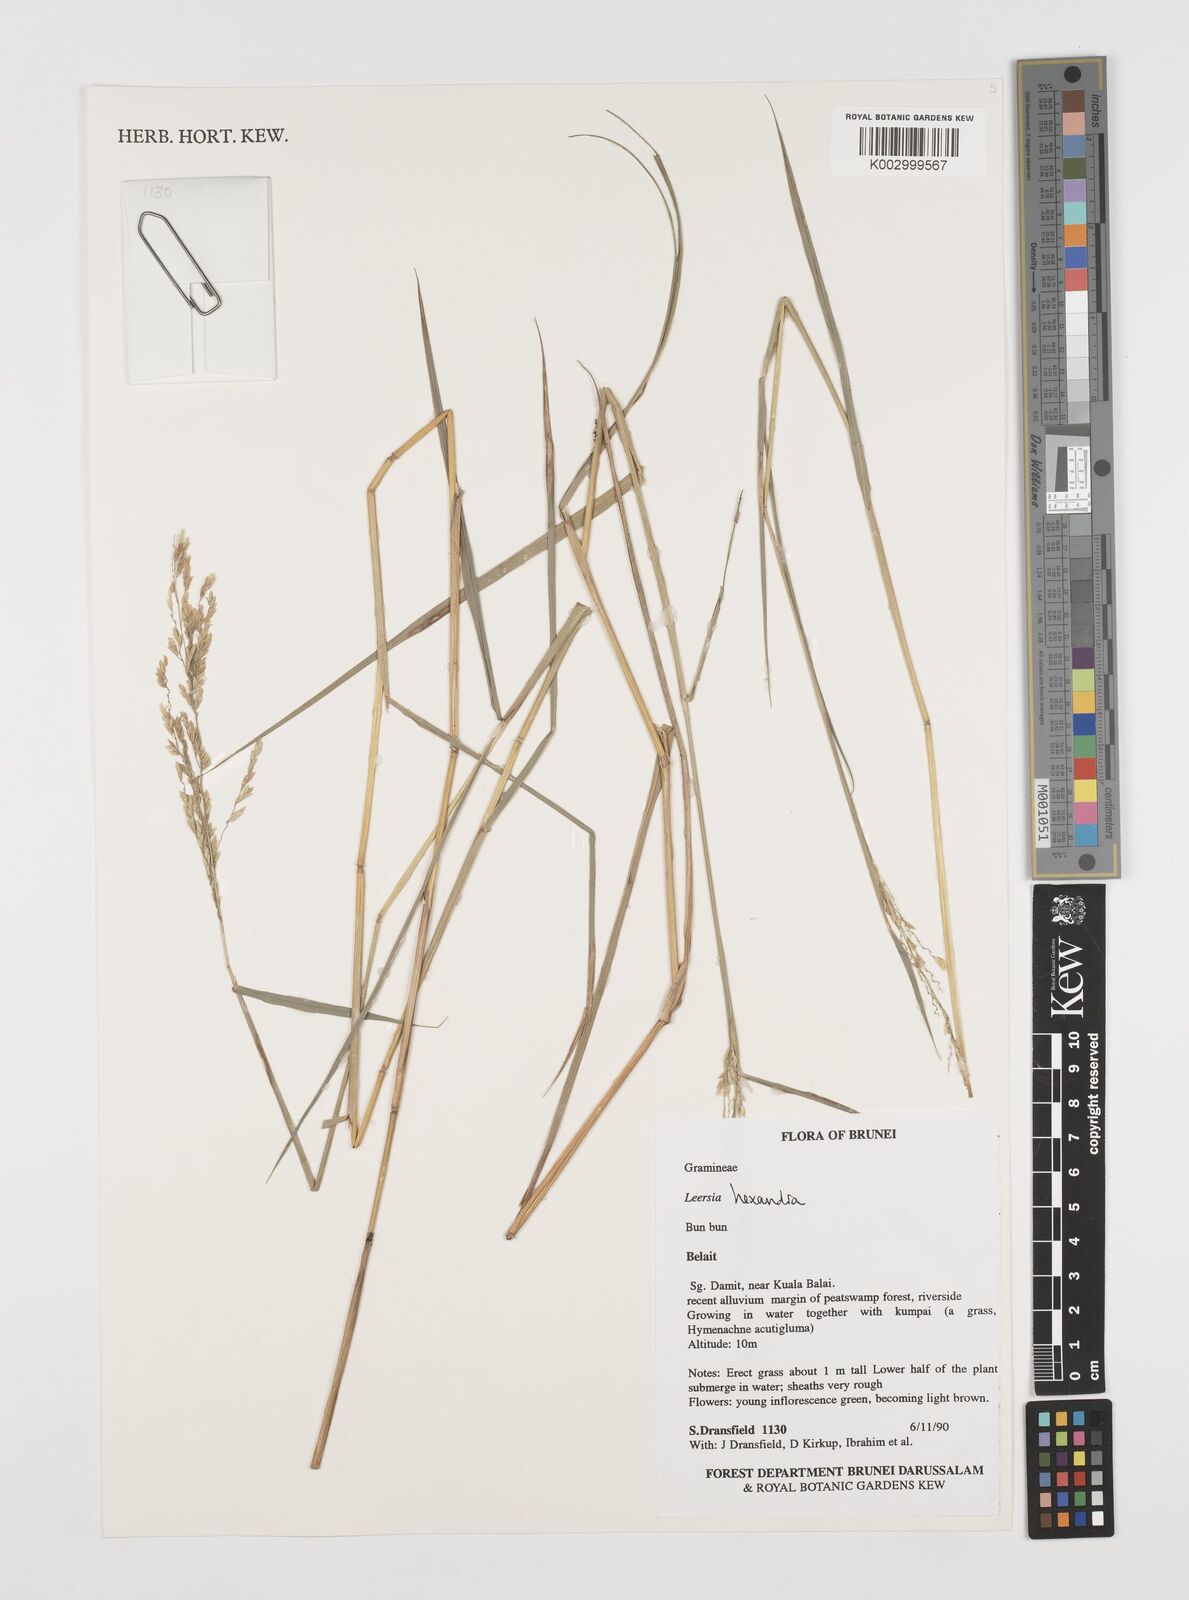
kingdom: Plantae
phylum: Tracheophyta
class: Liliopsida
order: Poales
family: Poaceae
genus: Leersia
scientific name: Leersia hexandra
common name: Southern cut grass
